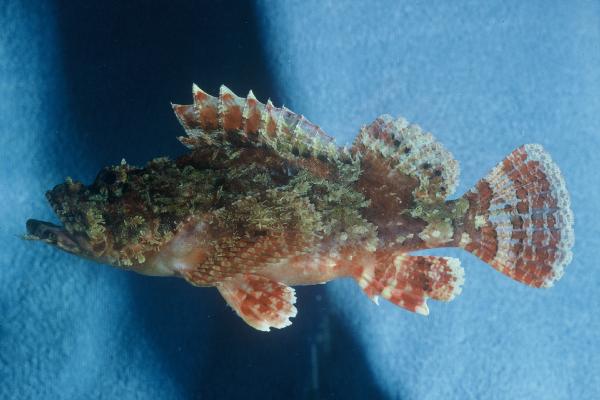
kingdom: Animalia
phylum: Chordata
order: Scorpaeniformes
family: Scorpaenidae
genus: Scorpaenopsis
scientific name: Scorpaenopsis venosa
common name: Raggy scorpionfish
